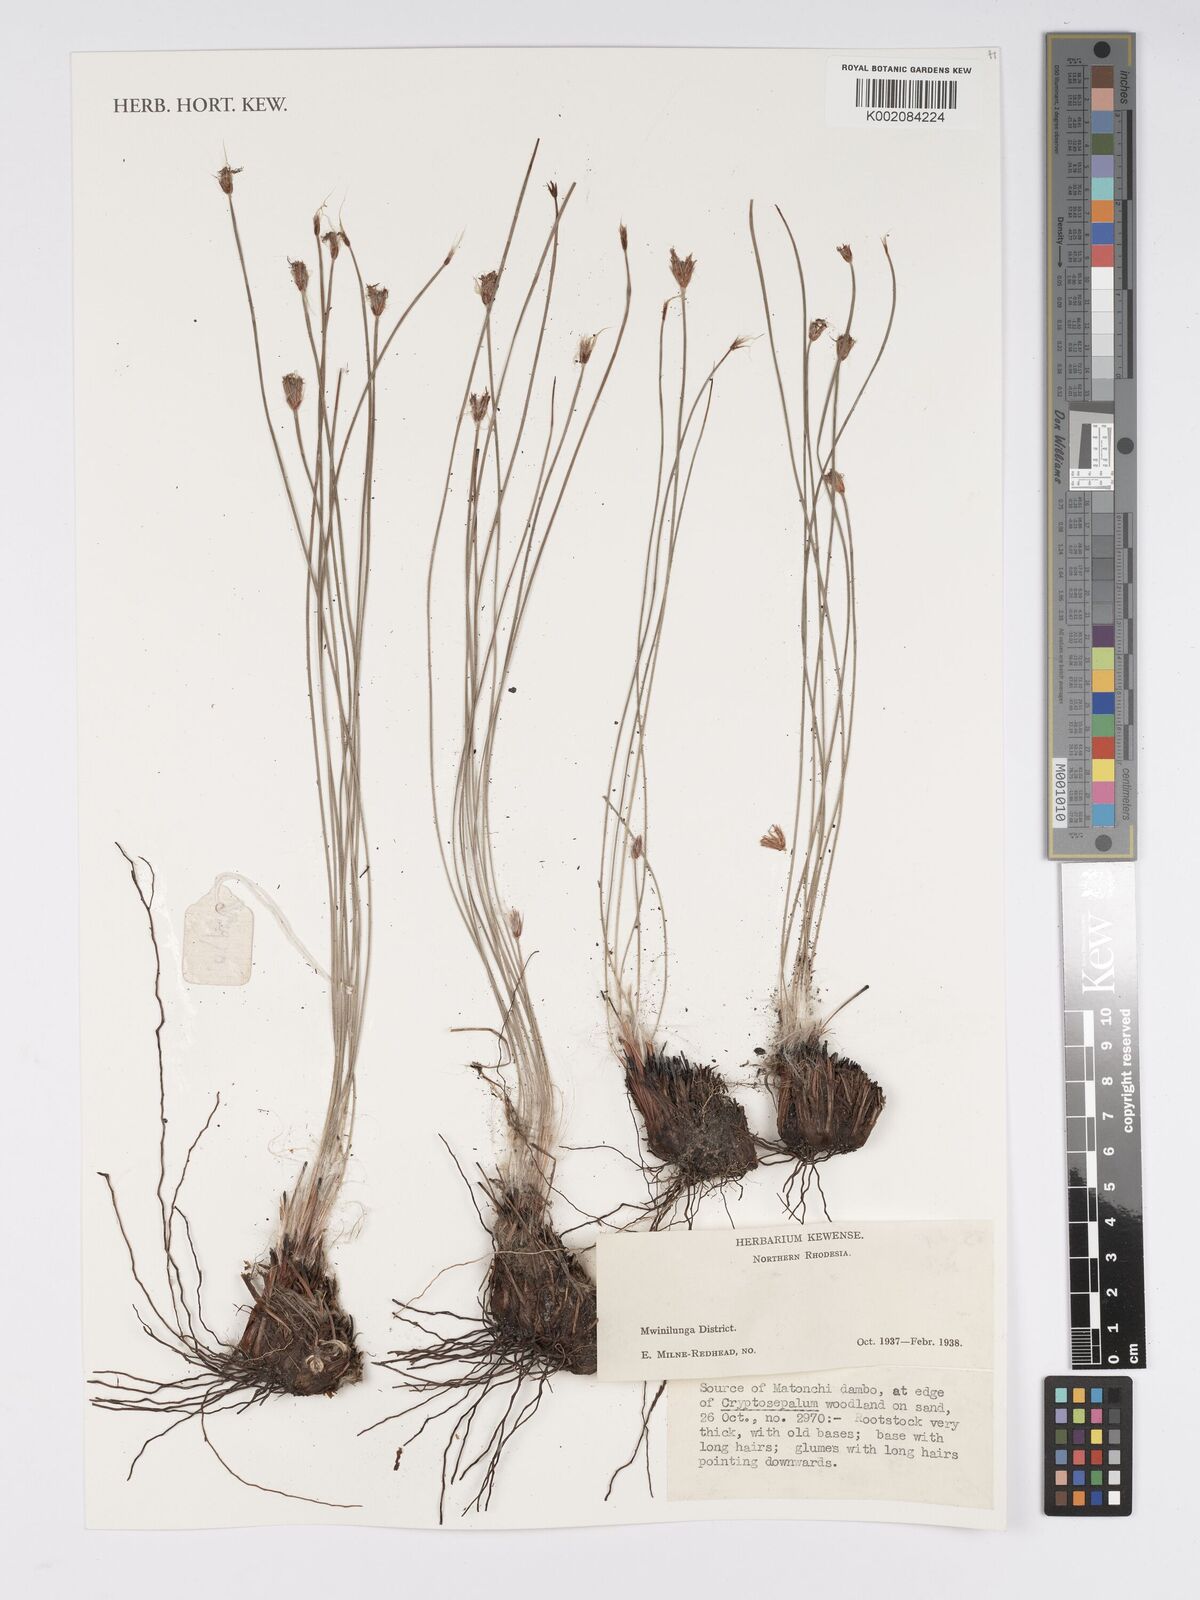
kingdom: Plantae
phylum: Tracheophyta
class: Liliopsida
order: Poales
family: Cyperaceae
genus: Bulbostylis
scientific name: Bulbostylis
